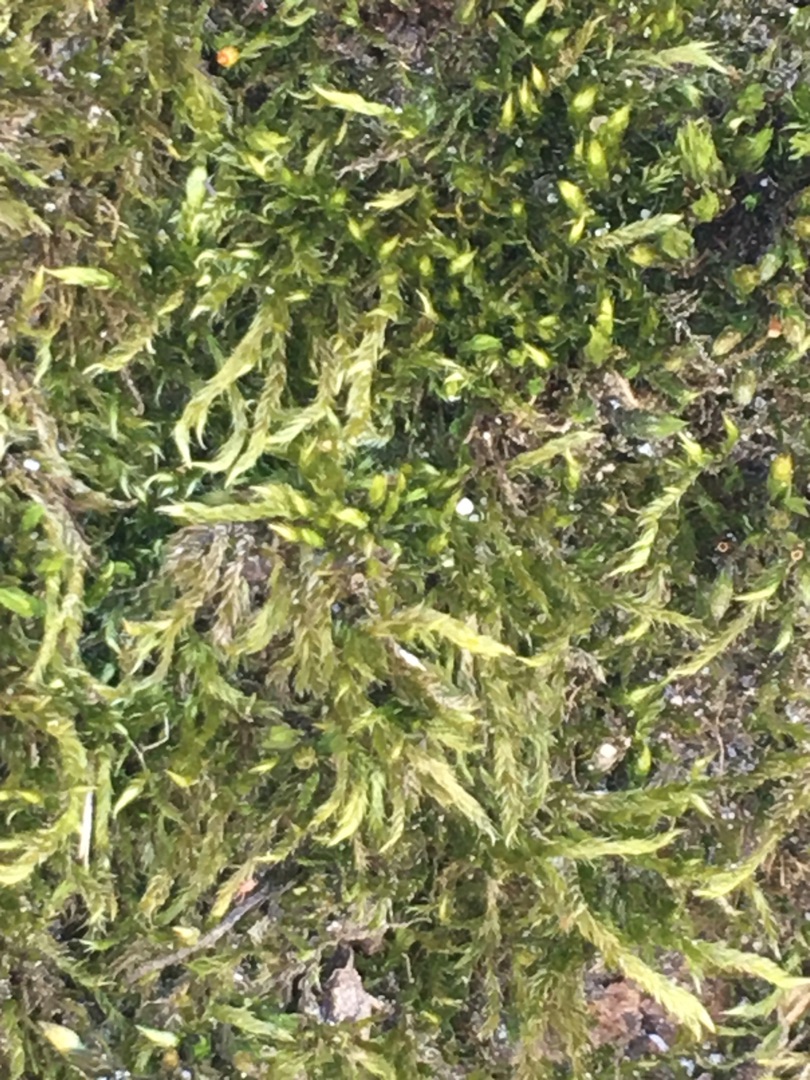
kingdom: Plantae
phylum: Bryophyta
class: Bryopsida
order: Hypnales
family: Hypnaceae
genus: Hypnum
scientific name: Hypnum cupressiforme
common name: Almindelig cypresmos
